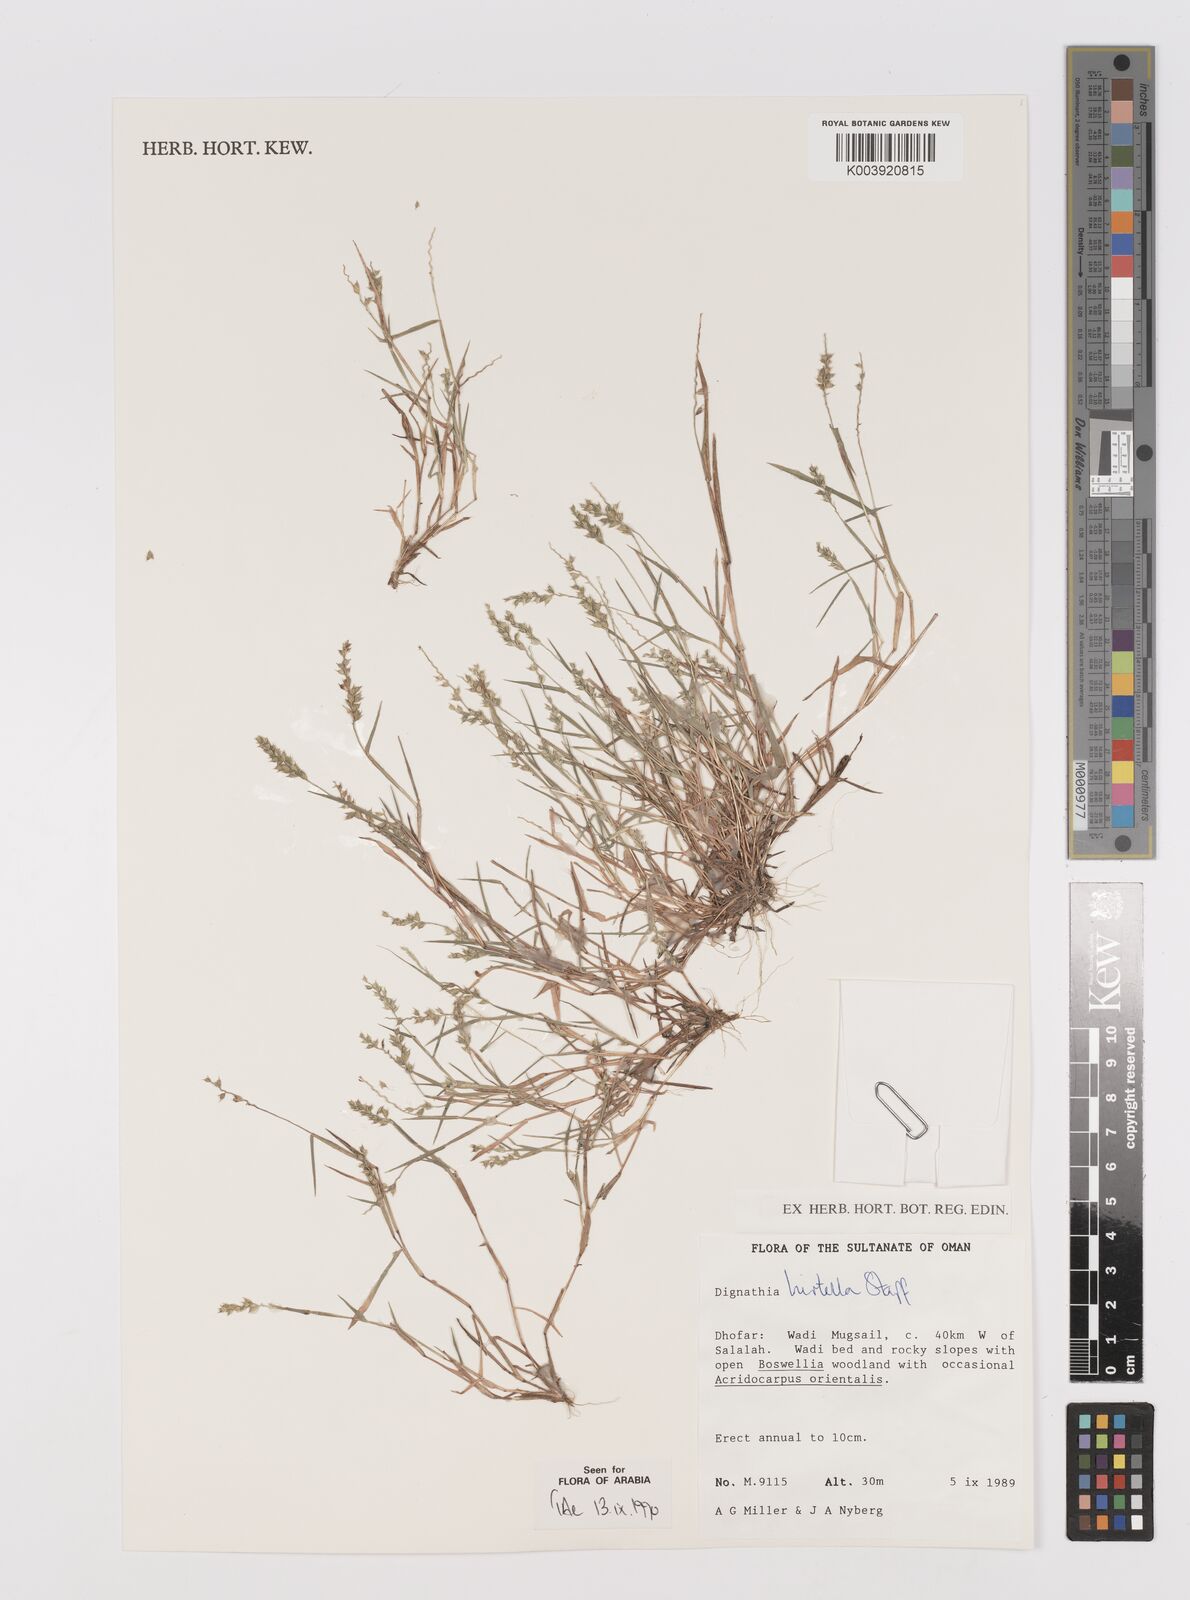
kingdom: Plantae
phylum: Tracheophyta
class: Liliopsida
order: Poales
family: Poaceae
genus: Dignathia
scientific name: Dignathia hirtella
